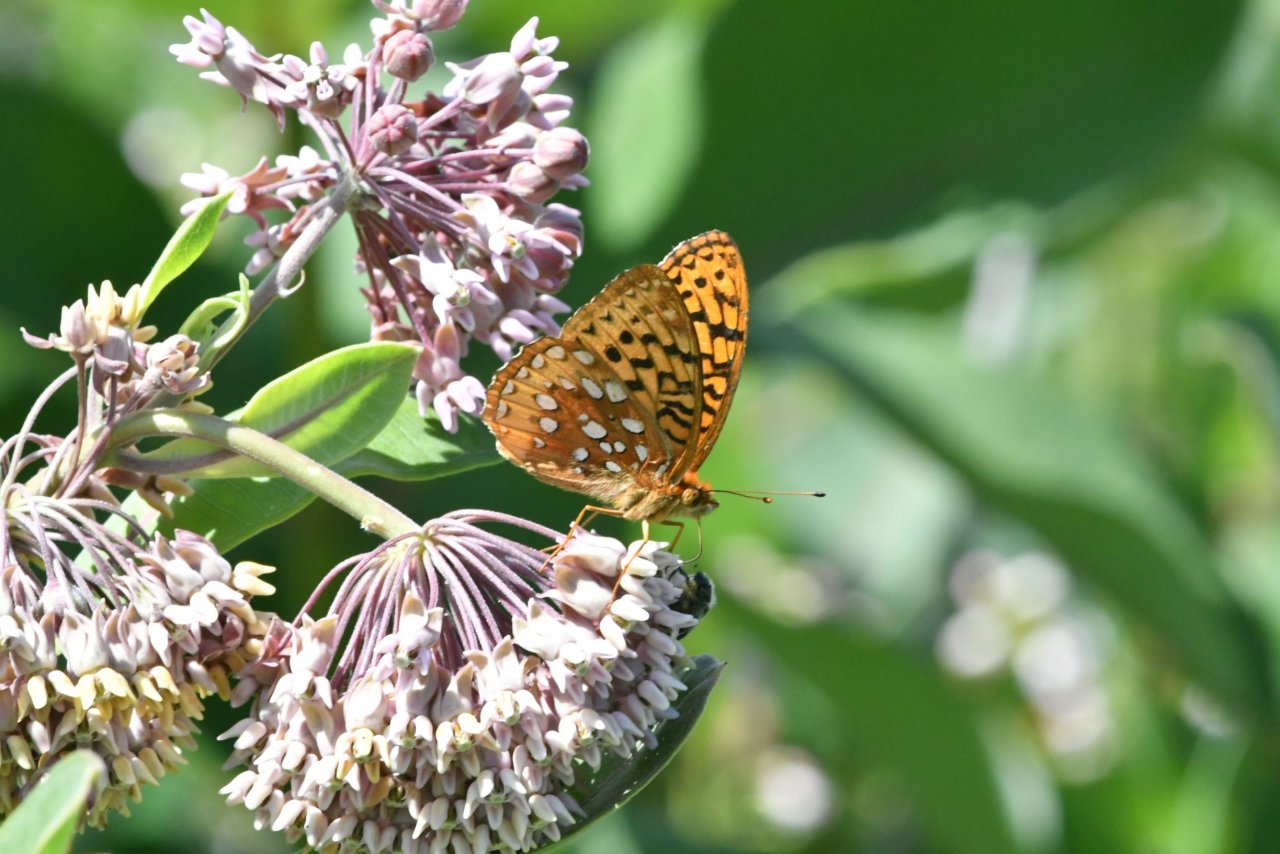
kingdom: Animalia
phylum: Arthropoda
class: Insecta
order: Lepidoptera
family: Nymphalidae
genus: Speyeria
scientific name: Speyeria cybele
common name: Great Spangled Fritillary
